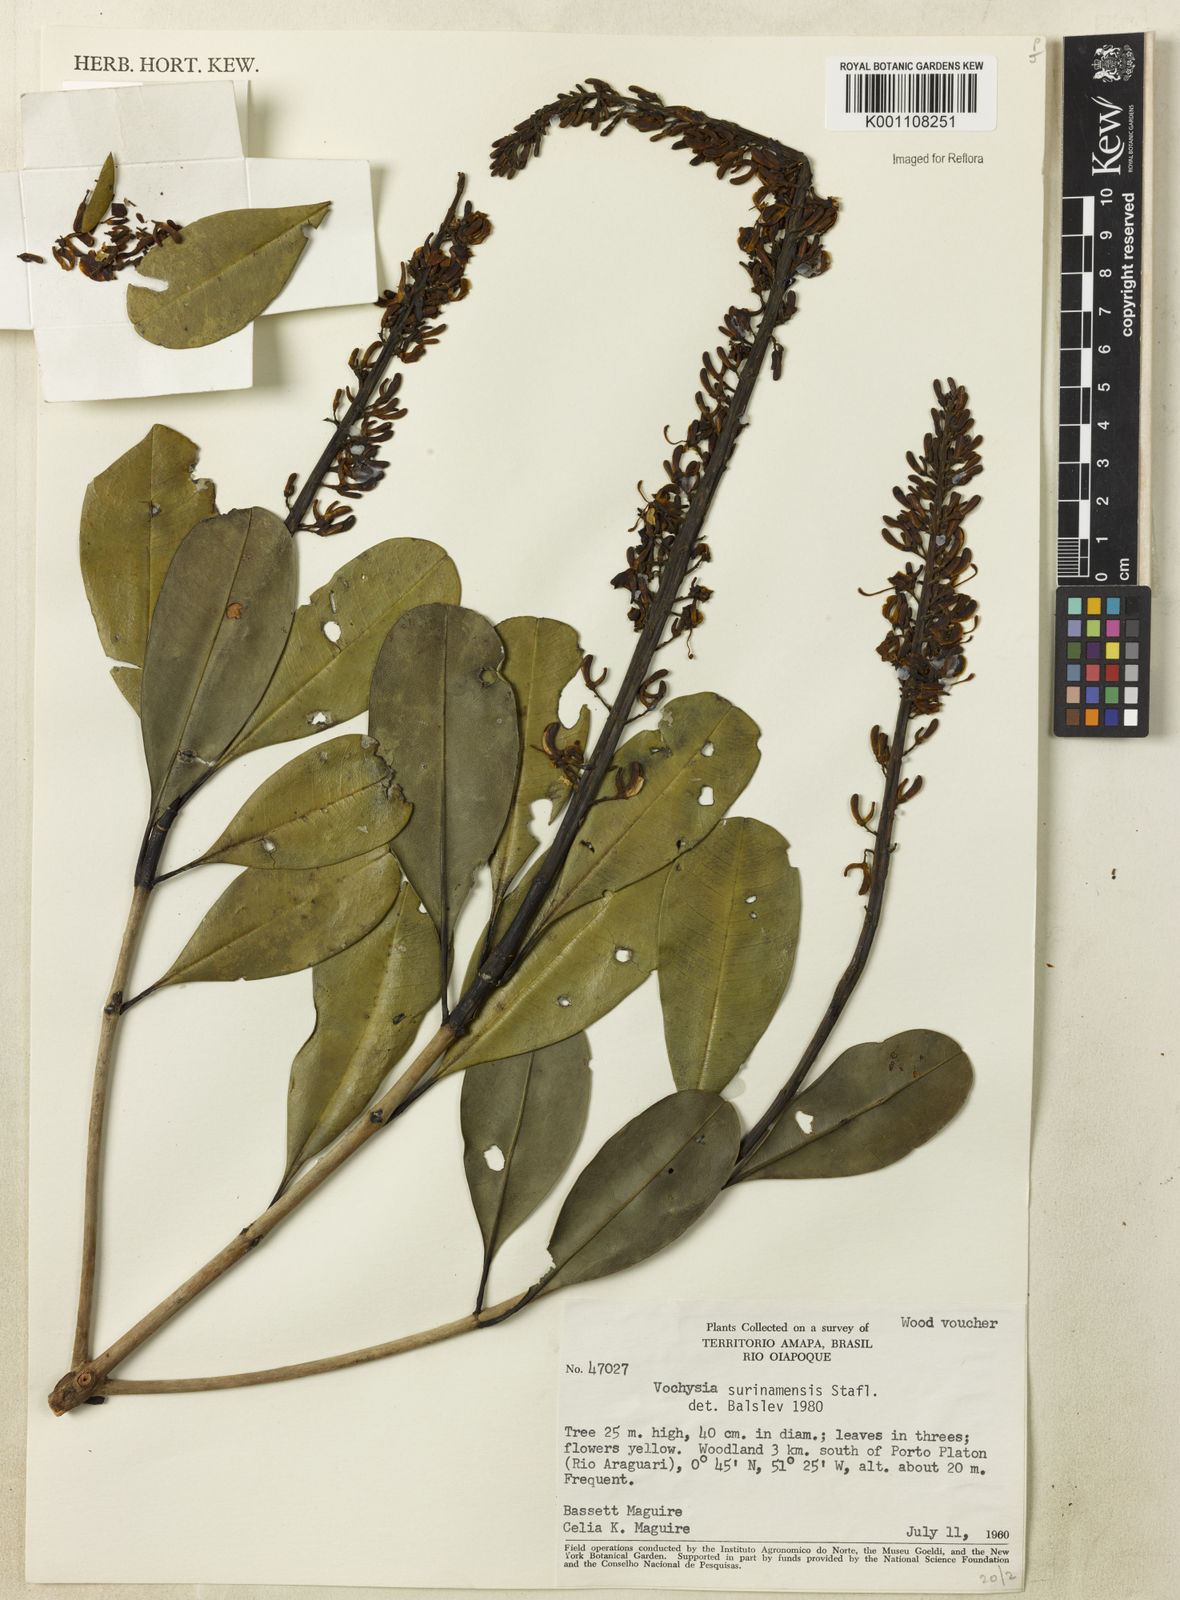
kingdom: Plantae
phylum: Tracheophyta
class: Magnoliopsida
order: Myrtales
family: Vochysiaceae
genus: Vochysia
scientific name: Vochysia surinamensis
